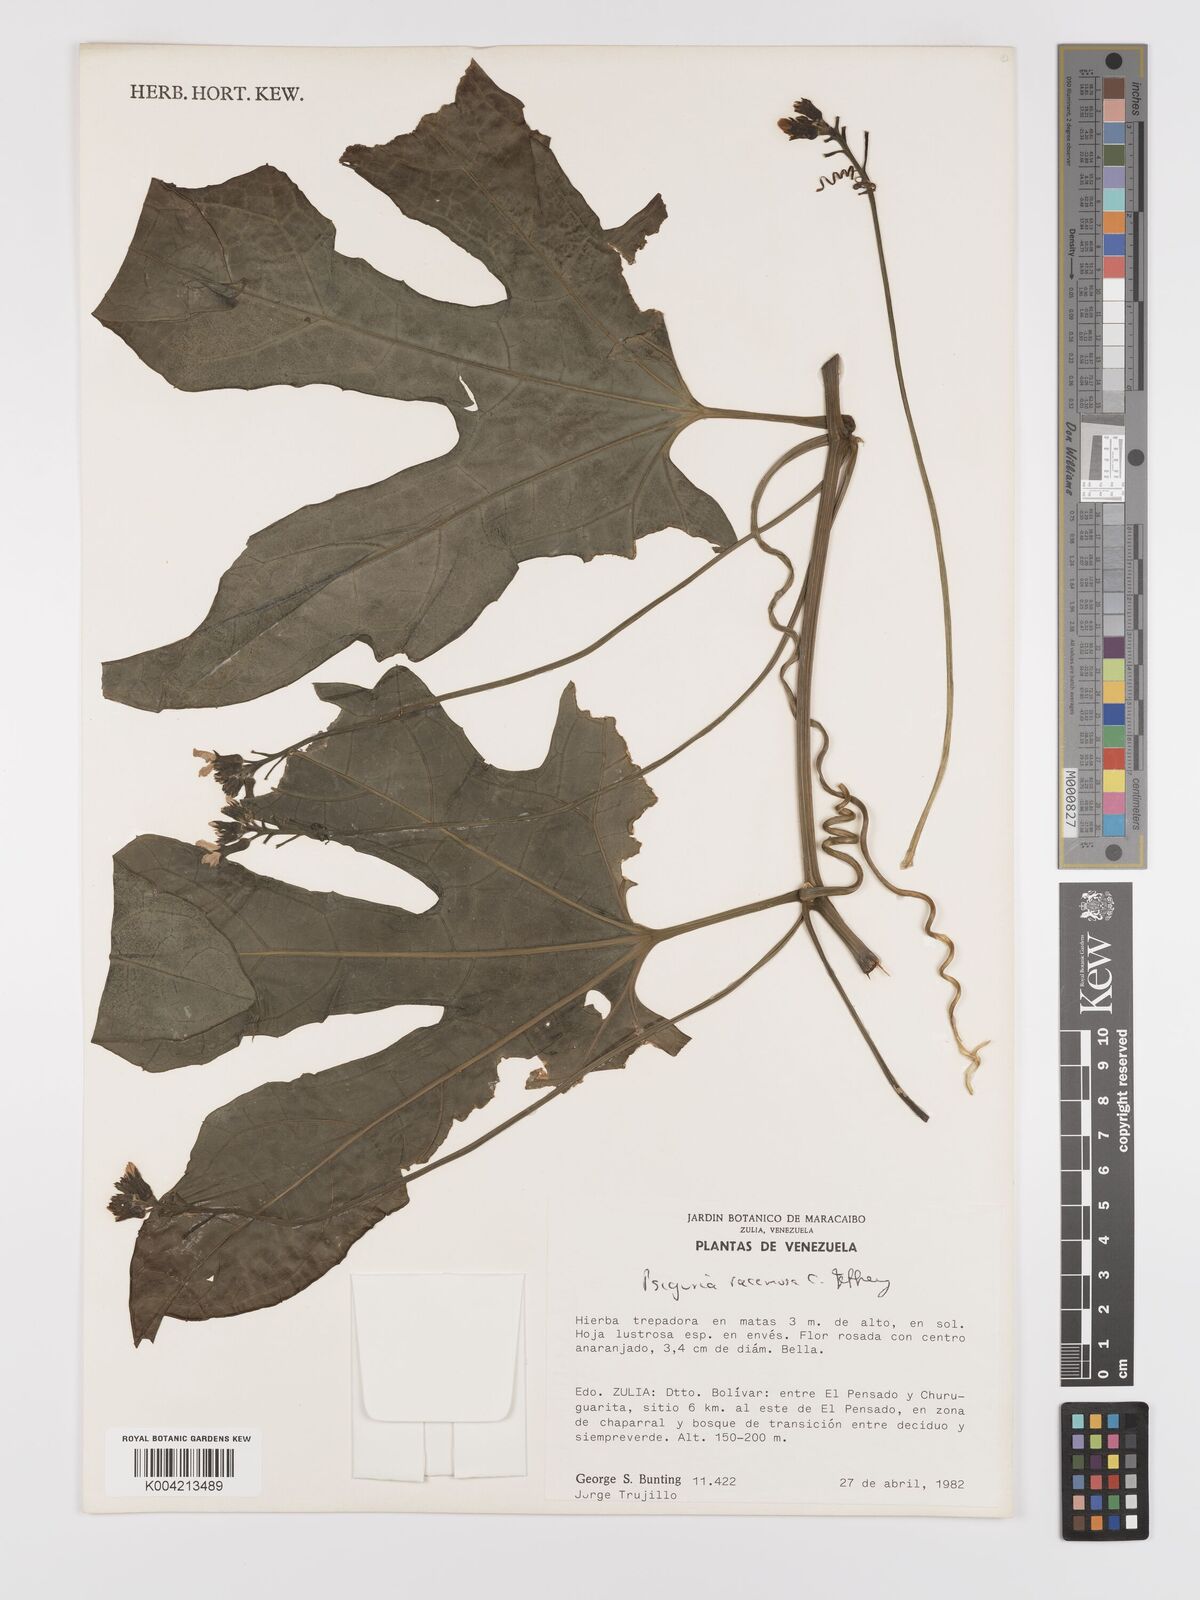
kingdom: Plantae
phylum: Tracheophyta
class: Magnoliopsida
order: Cucurbitales
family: Cucurbitaceae
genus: Psiguria
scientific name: Psiguria racemosa
